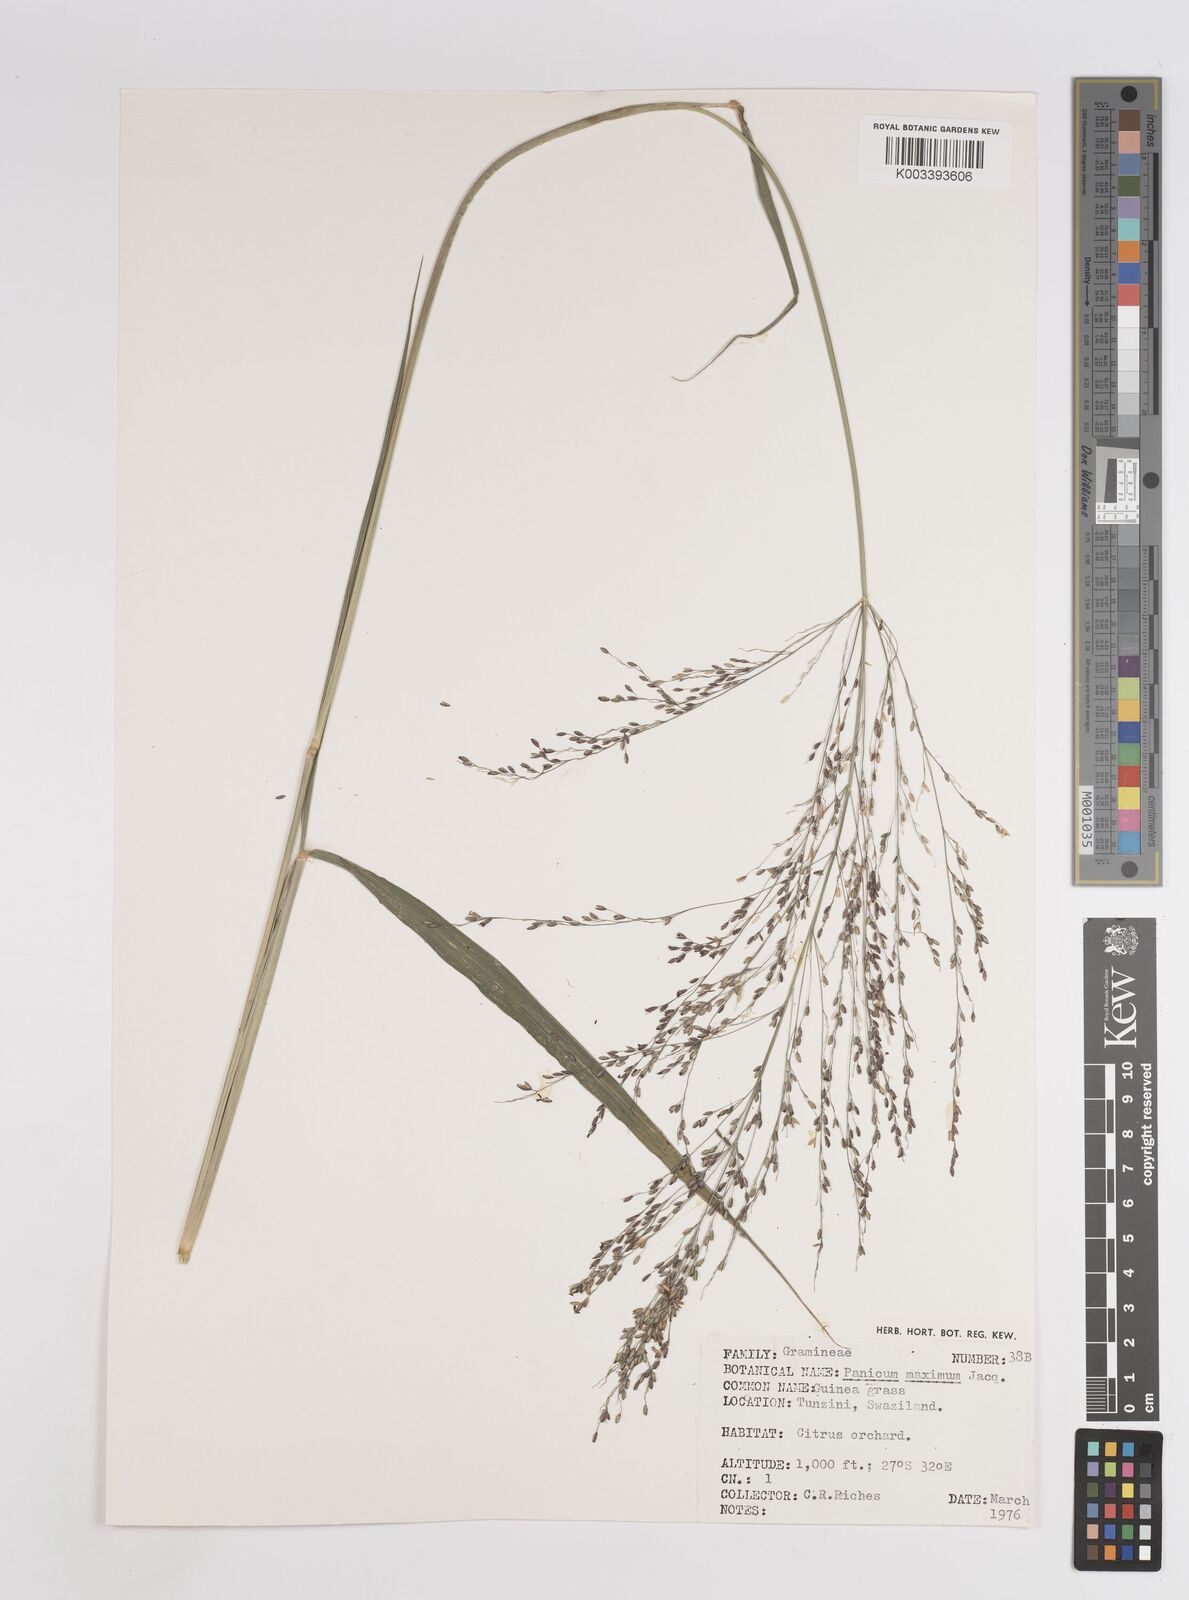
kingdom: Plantae
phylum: Tracheophyta
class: Liliopsida
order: Poales
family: Poaceae
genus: Megathyrsus
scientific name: Megathyrsus maximus
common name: Guineagrass
